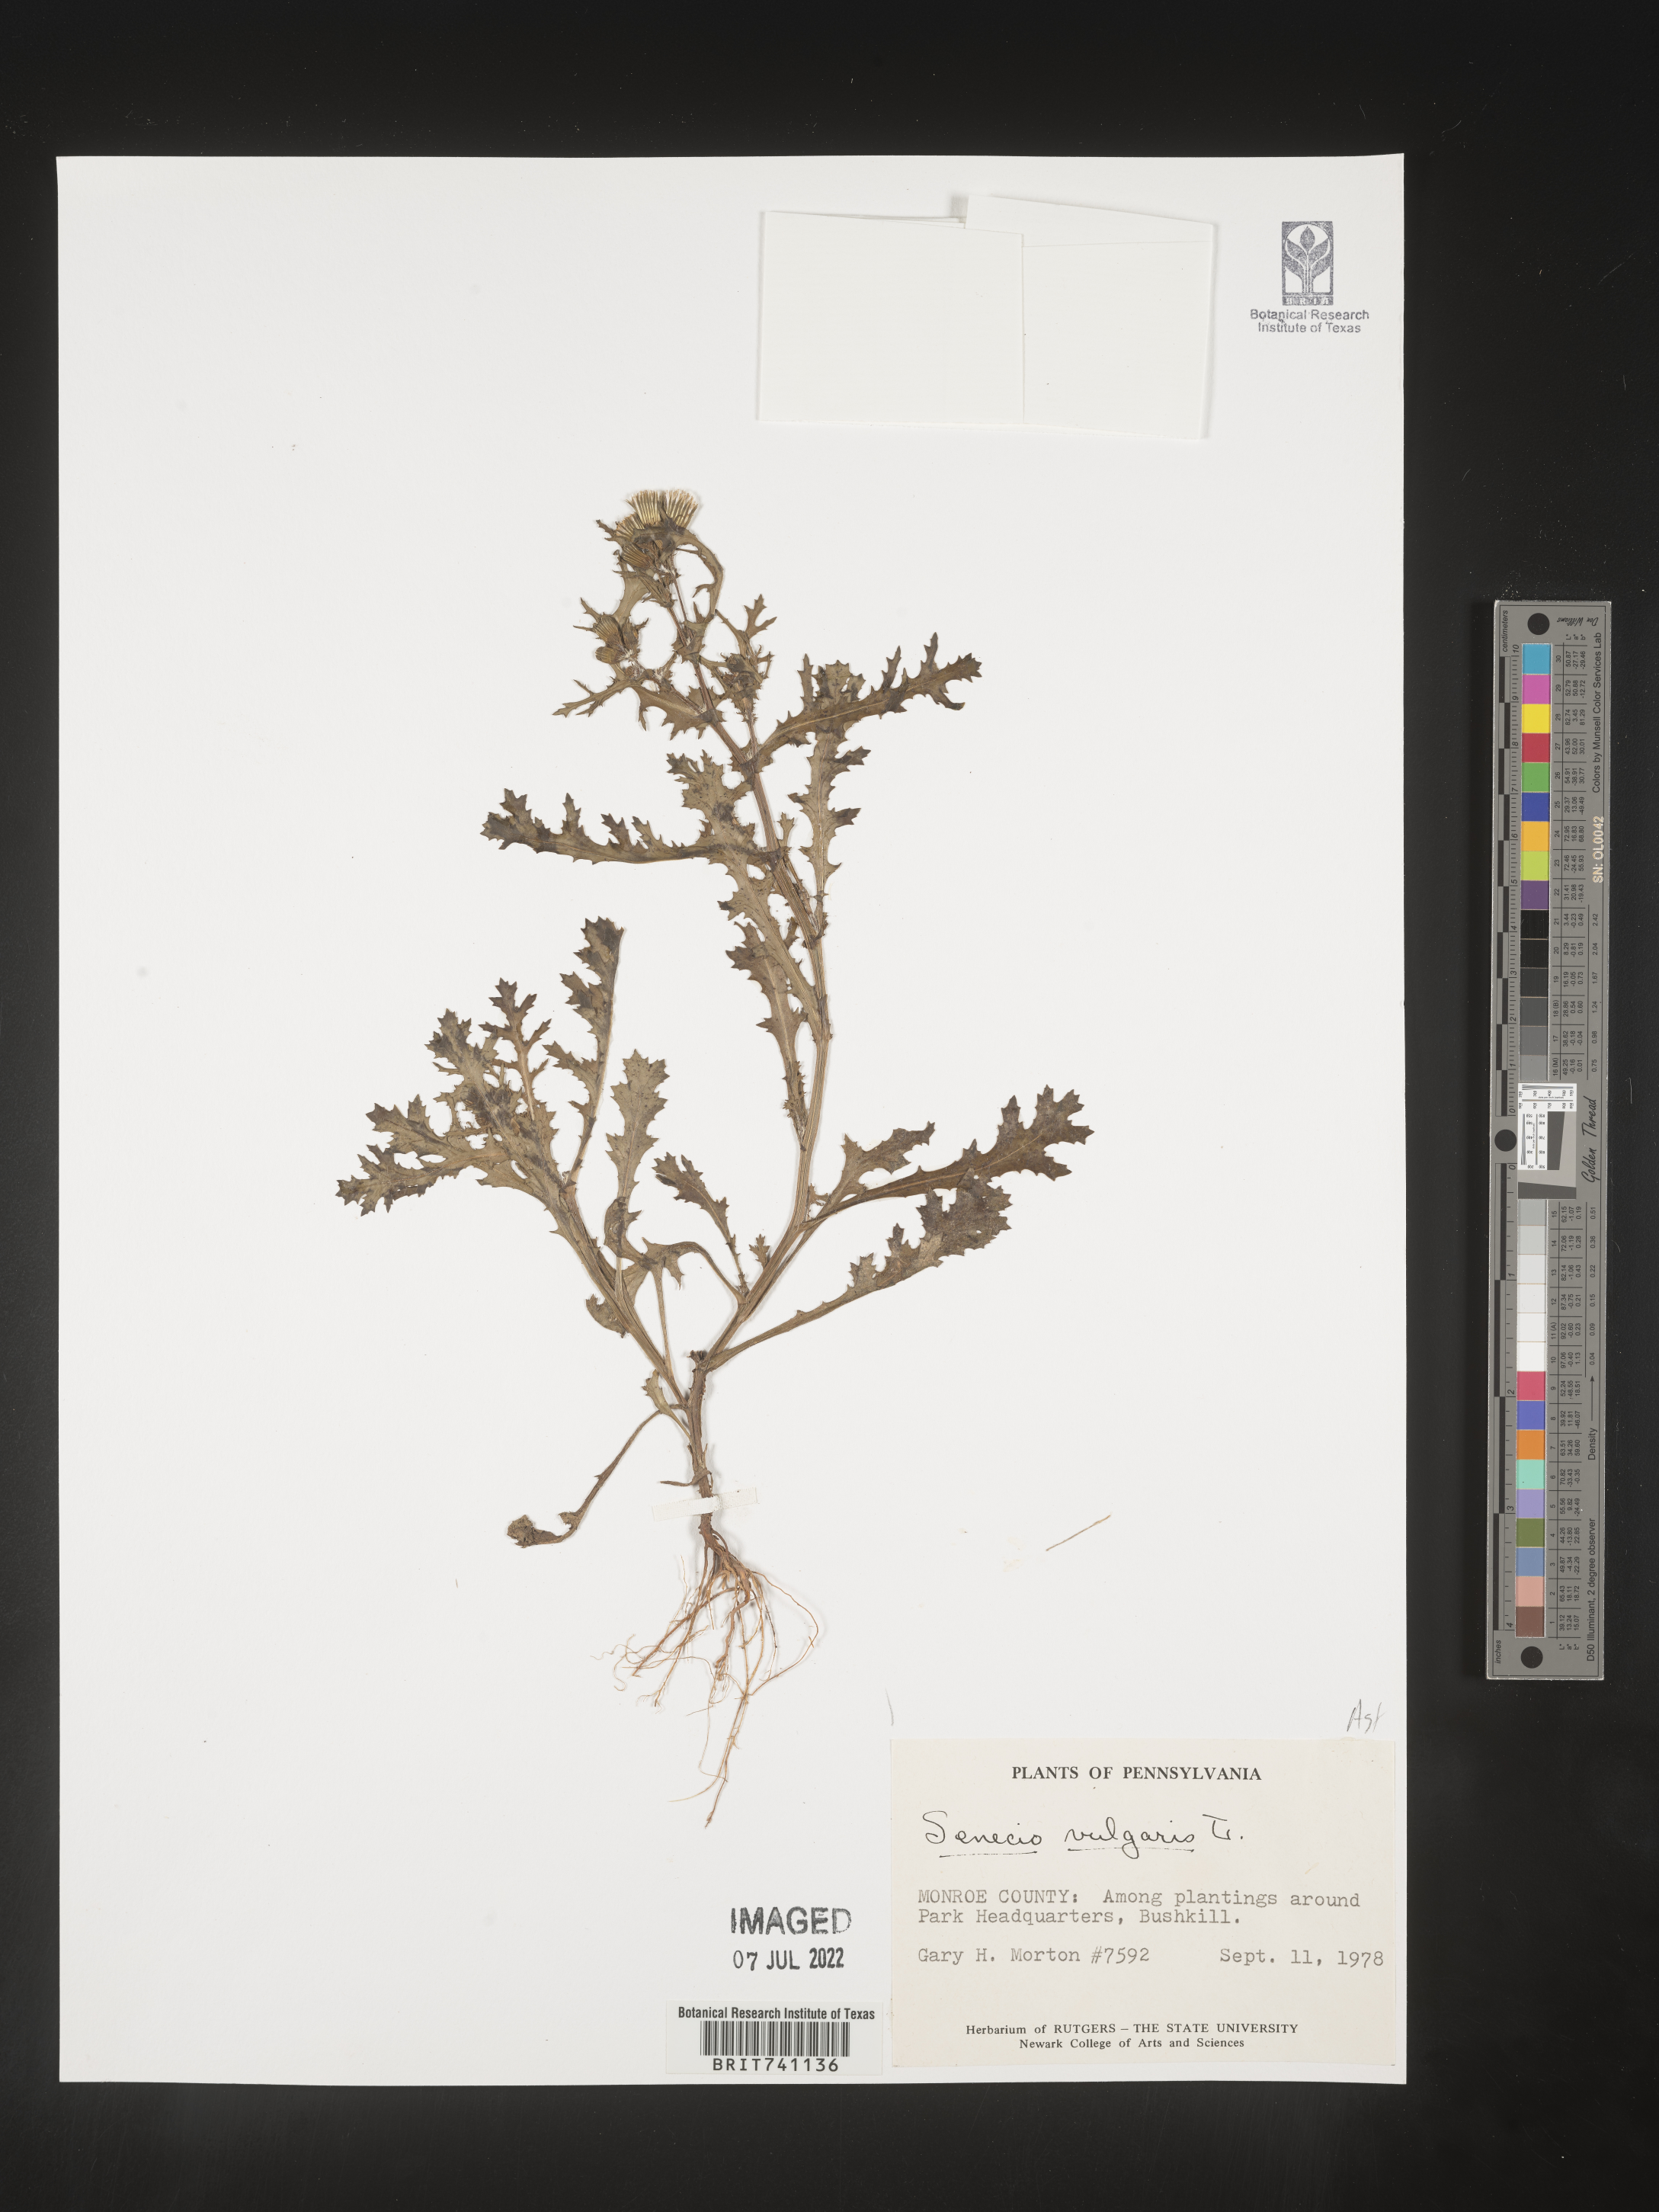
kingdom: Plantae
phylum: Tracheophyta
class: Magnoliopsida
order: Asterales
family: Asteraceae
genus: Senecio
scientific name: Senecio vulgaris
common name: Old-man-in-the-spring
